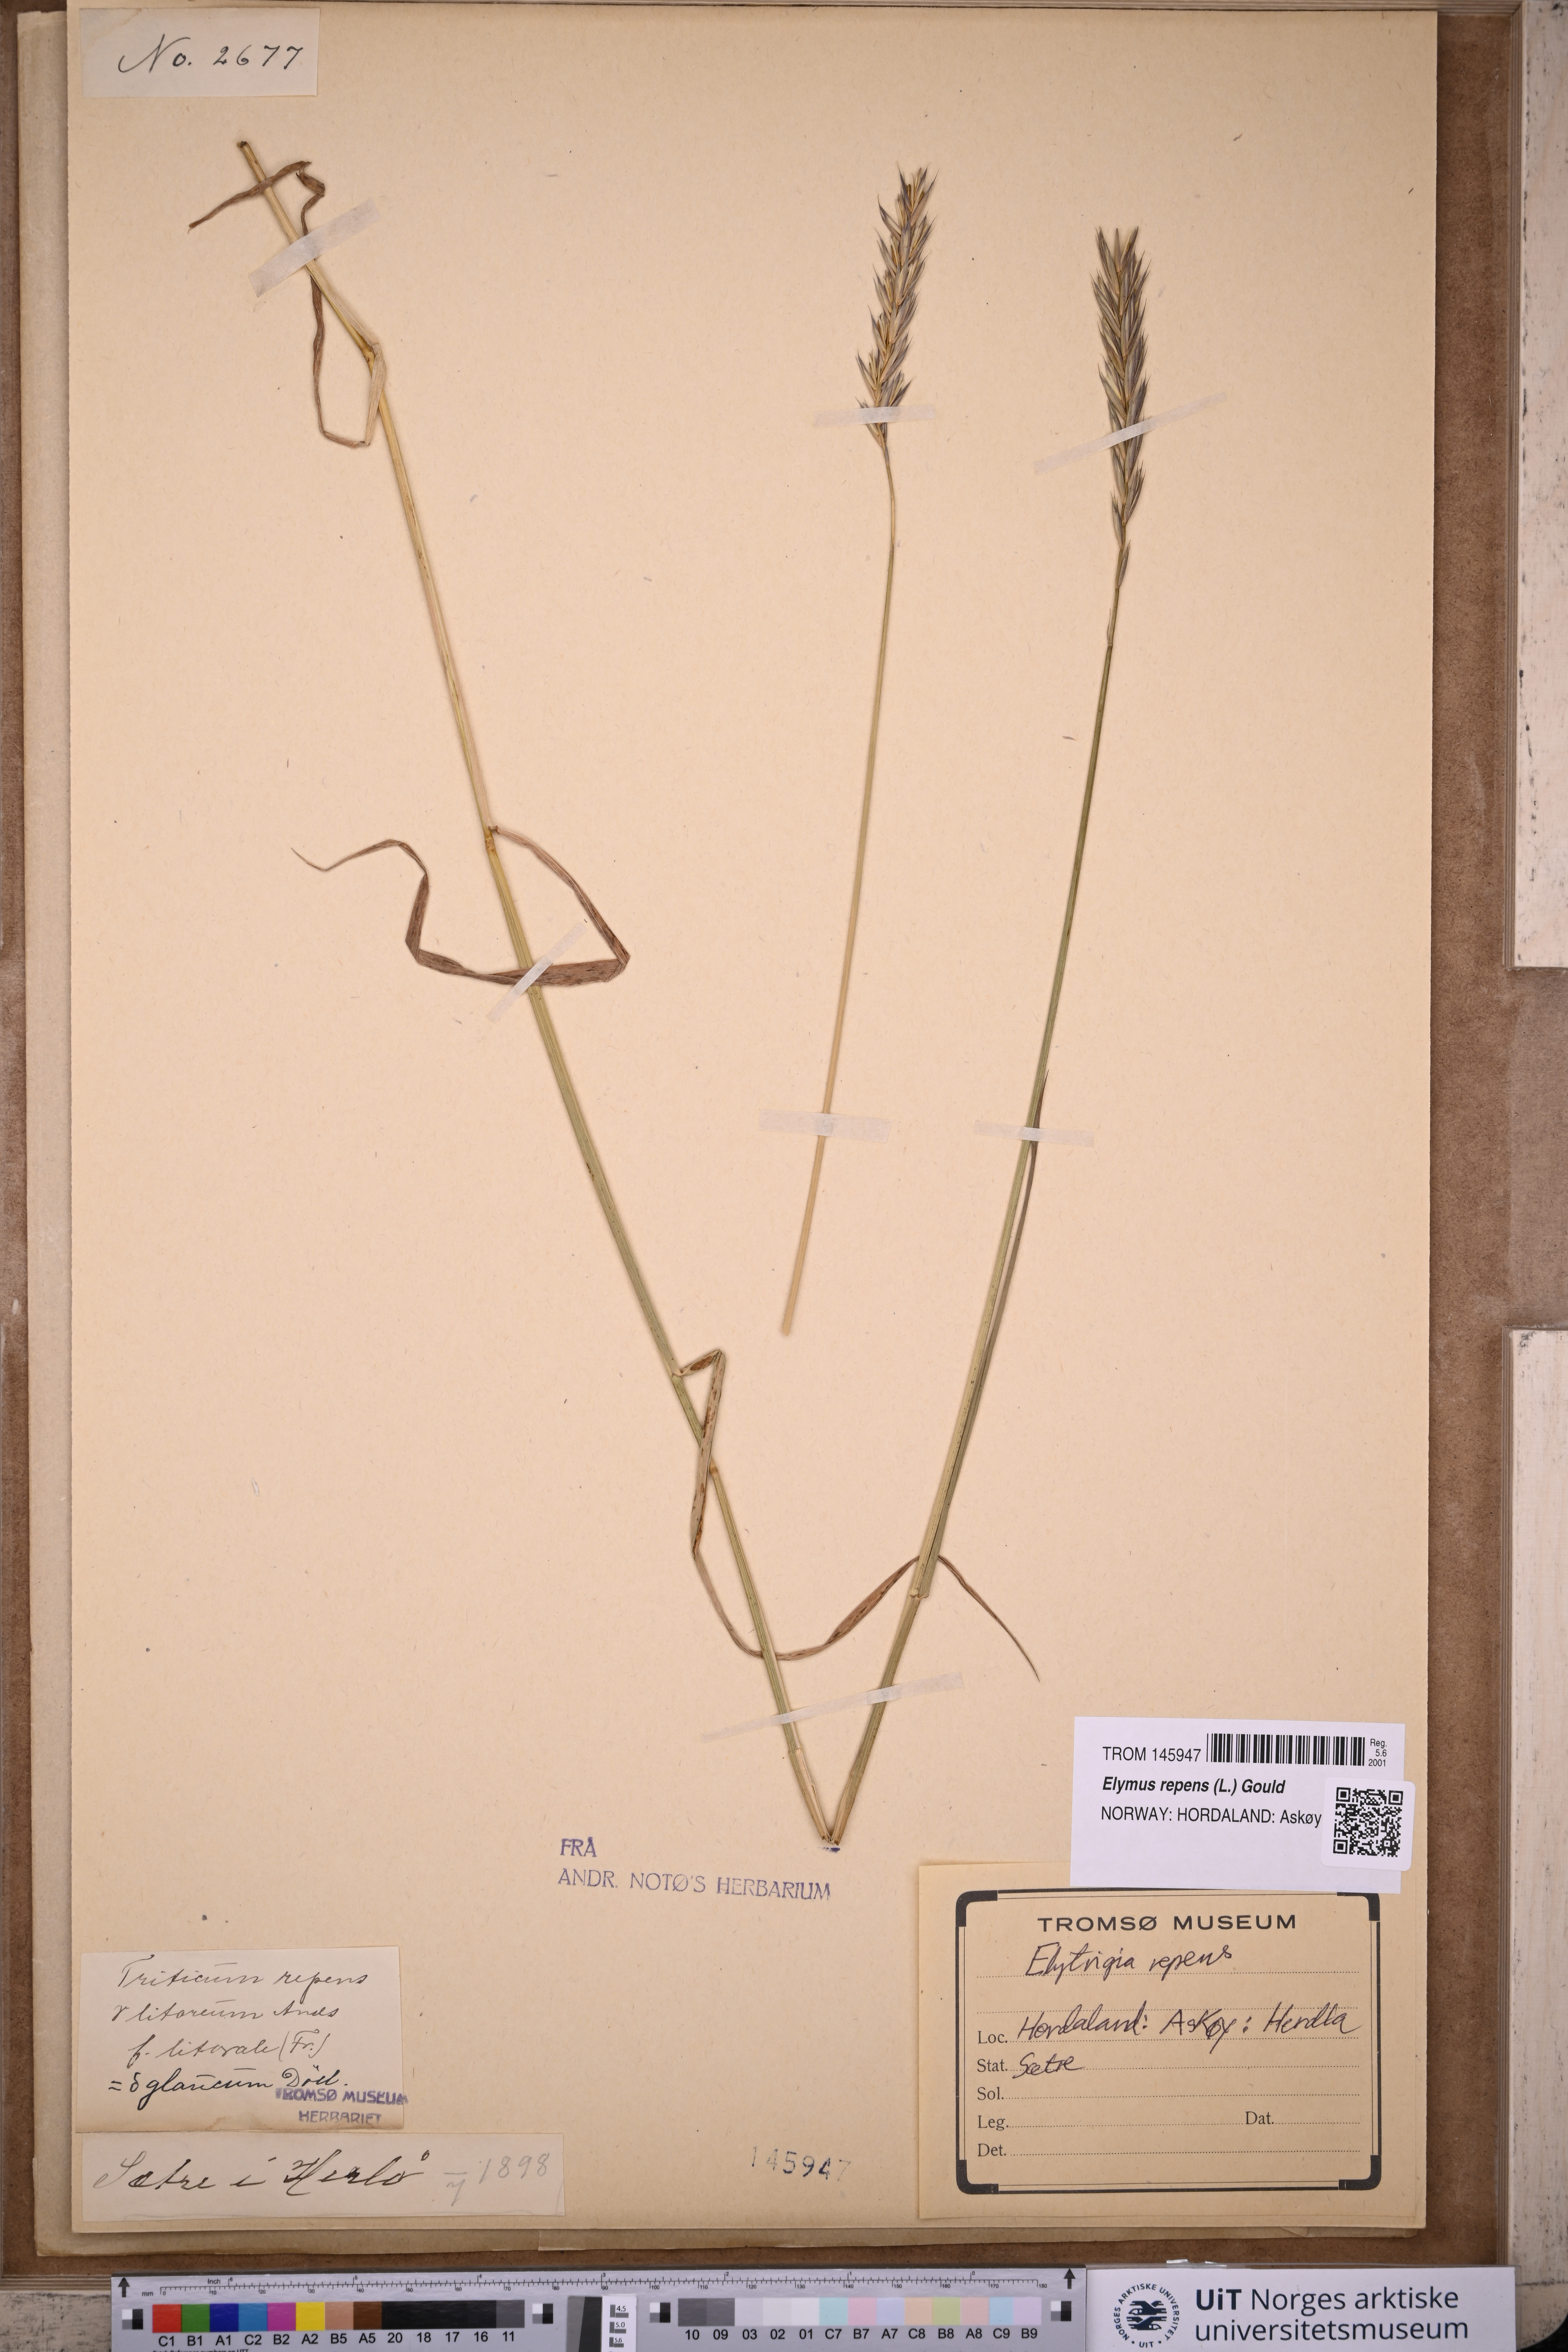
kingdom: Plantae
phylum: Tracheophyta
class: Liliopsida
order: Poales
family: Poaceae
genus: Elymus
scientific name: Elymus repens
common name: Quackgrass
